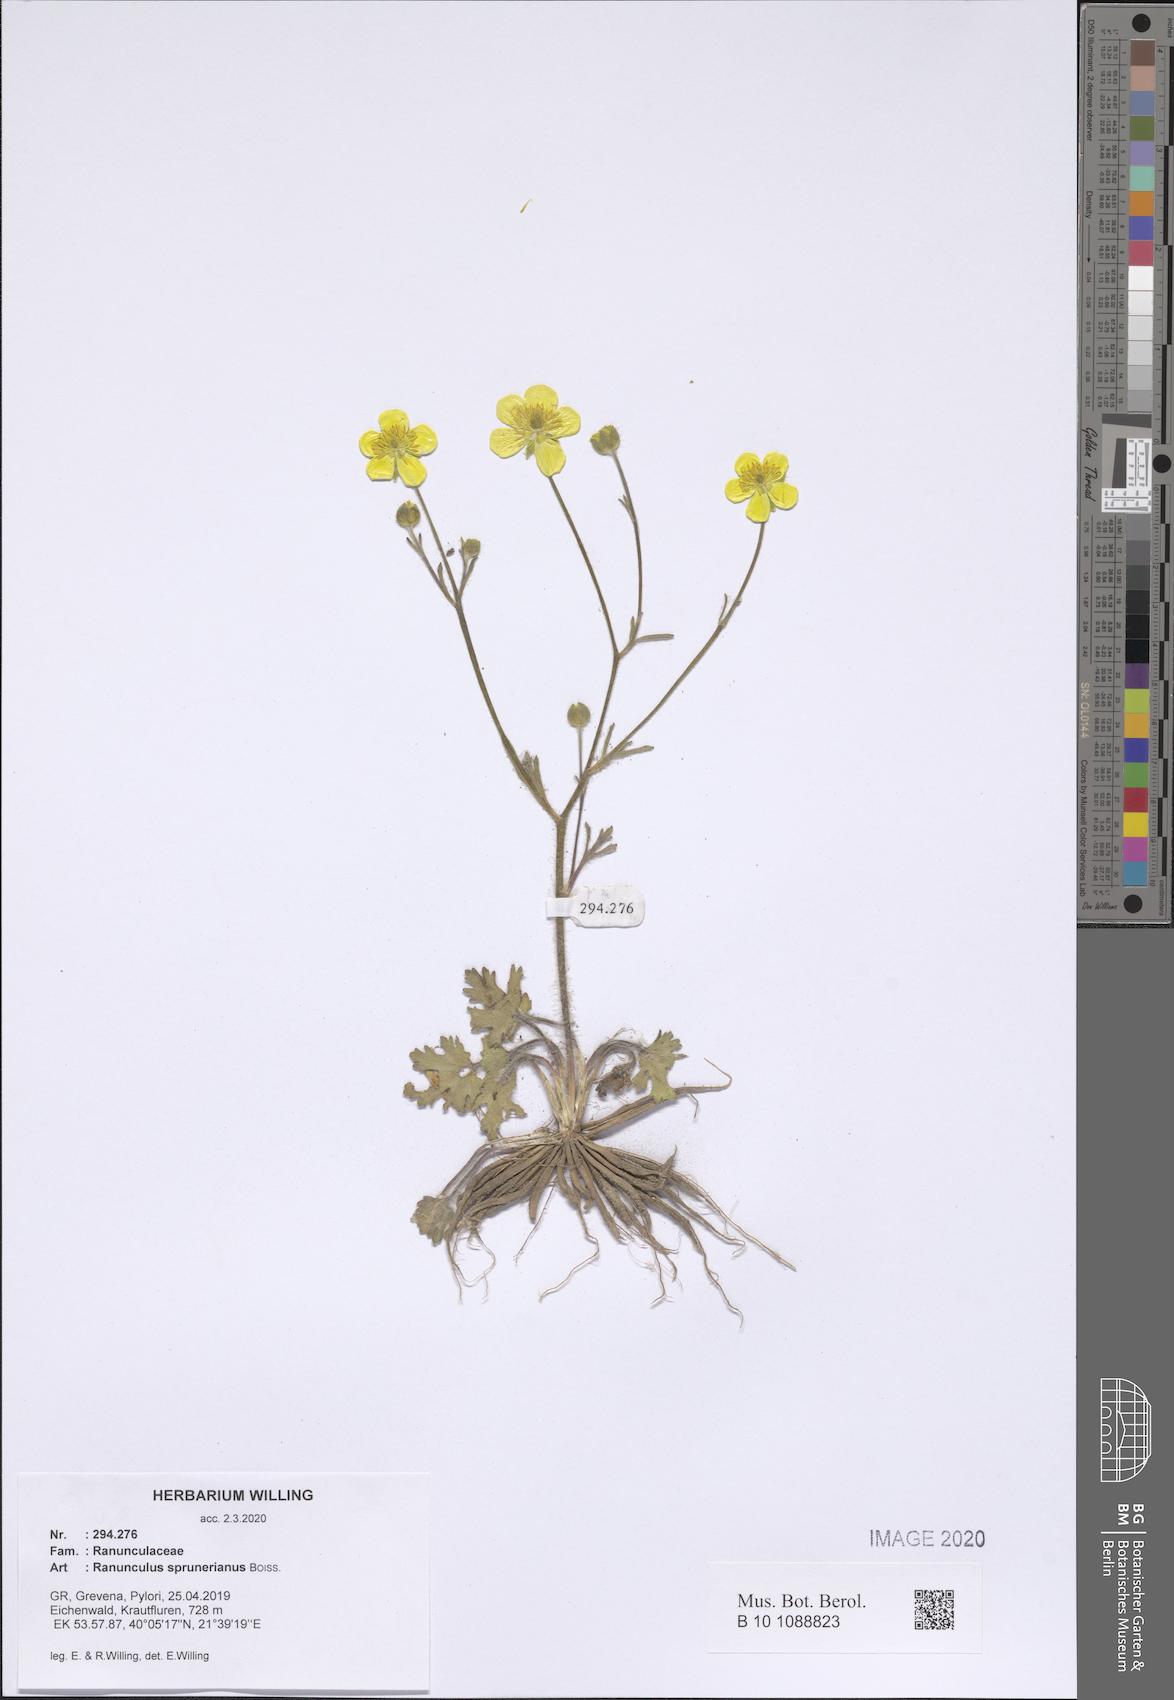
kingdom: Plantae
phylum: Tracheophyta
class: Magnoliopsida
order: Ranunculales
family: Ranunculaceae
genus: Ranunculus
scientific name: Ranunculus sprunerianus
